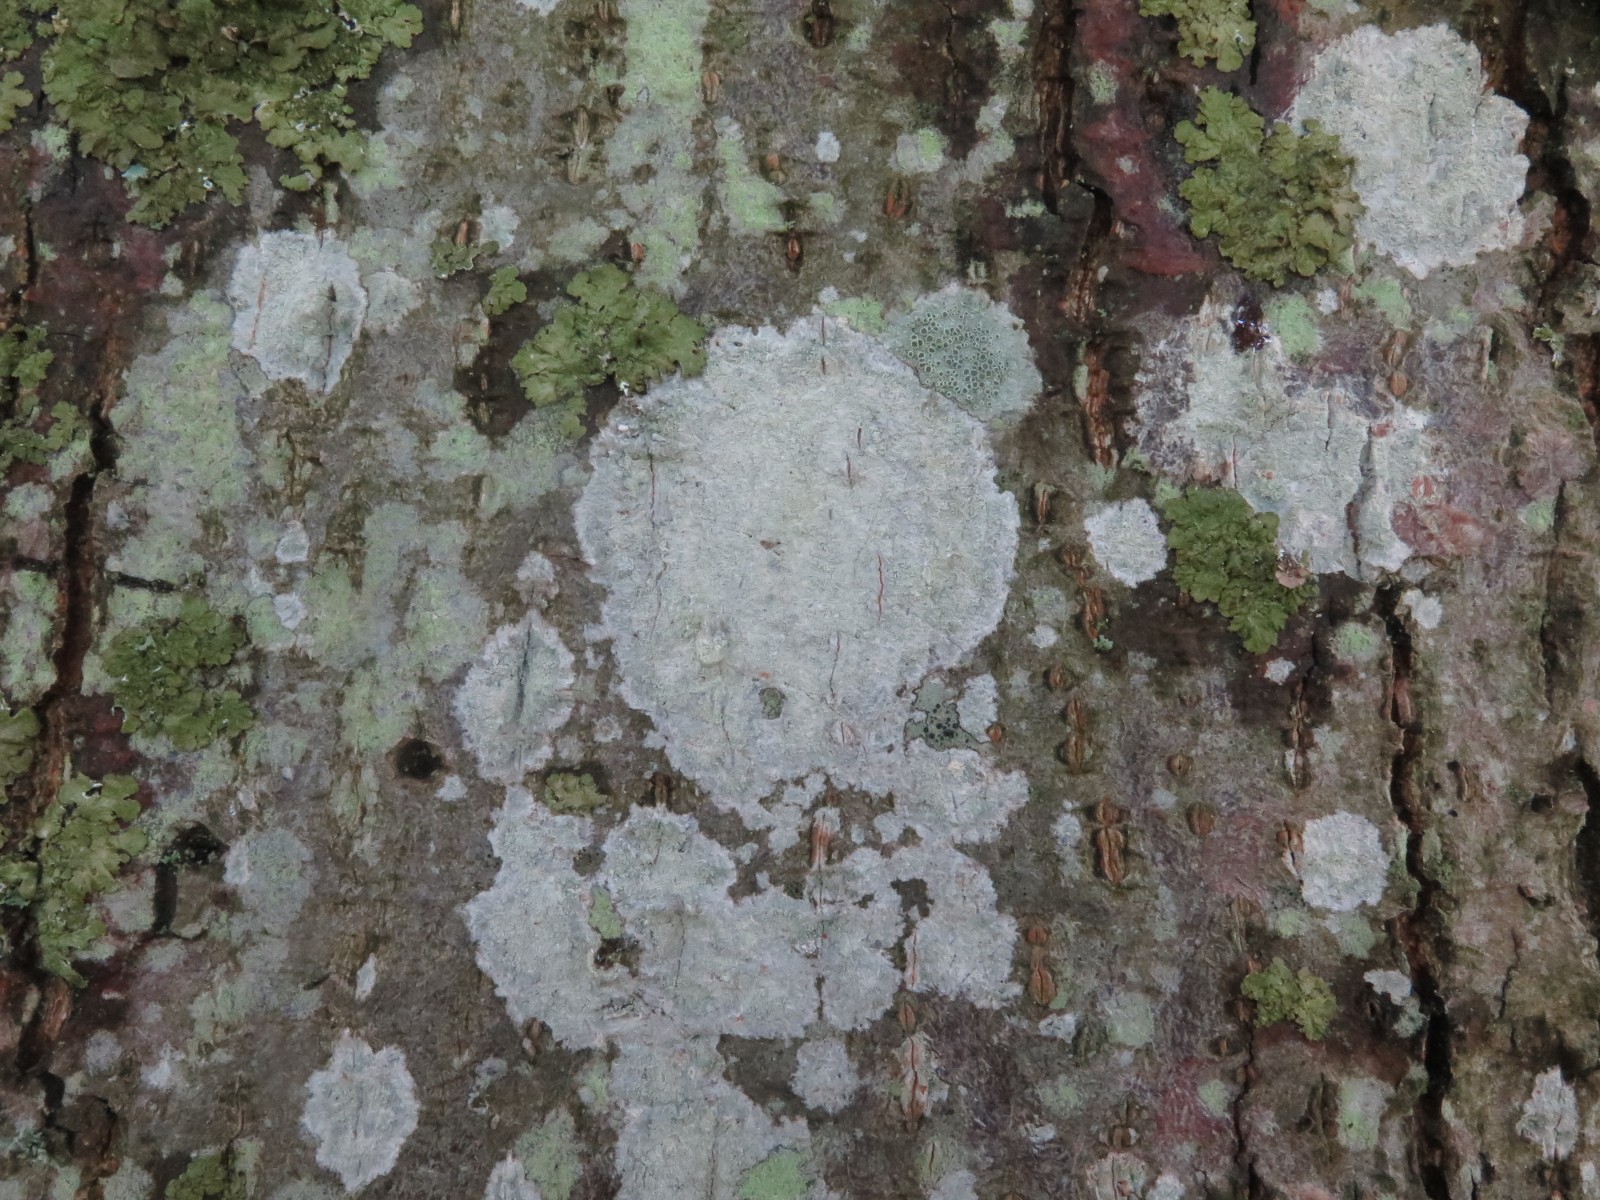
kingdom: Fungi
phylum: Ascomycota
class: Lecanoromycetes
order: Ostropales
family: Phlyctidaceae
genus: Phlyctis
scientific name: Phlyctis argena
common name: almindelig sølvlav
